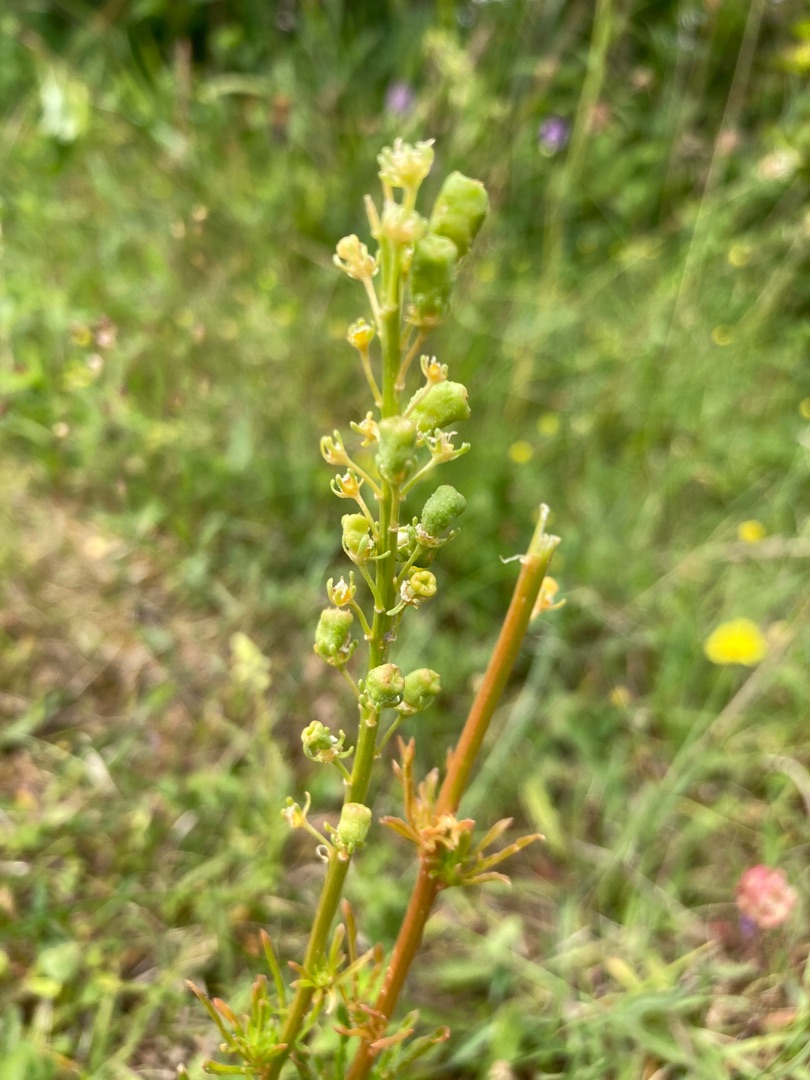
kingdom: Plantae
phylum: Tracheophyta
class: Magnoliopsida
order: Brassicales
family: Resedaceae
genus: Reseda
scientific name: Reseda lutea
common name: Gul reseda
